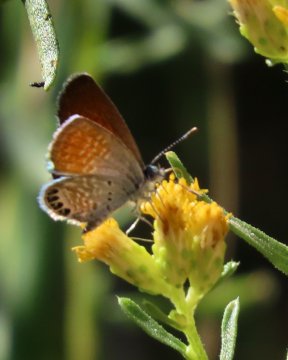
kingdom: Animalia
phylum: Arthropoda
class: Insecta
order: Lepidoptera
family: Lycaenidae
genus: Brephidium
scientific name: Brephidium exilis
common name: Western Pygmy-Blue
